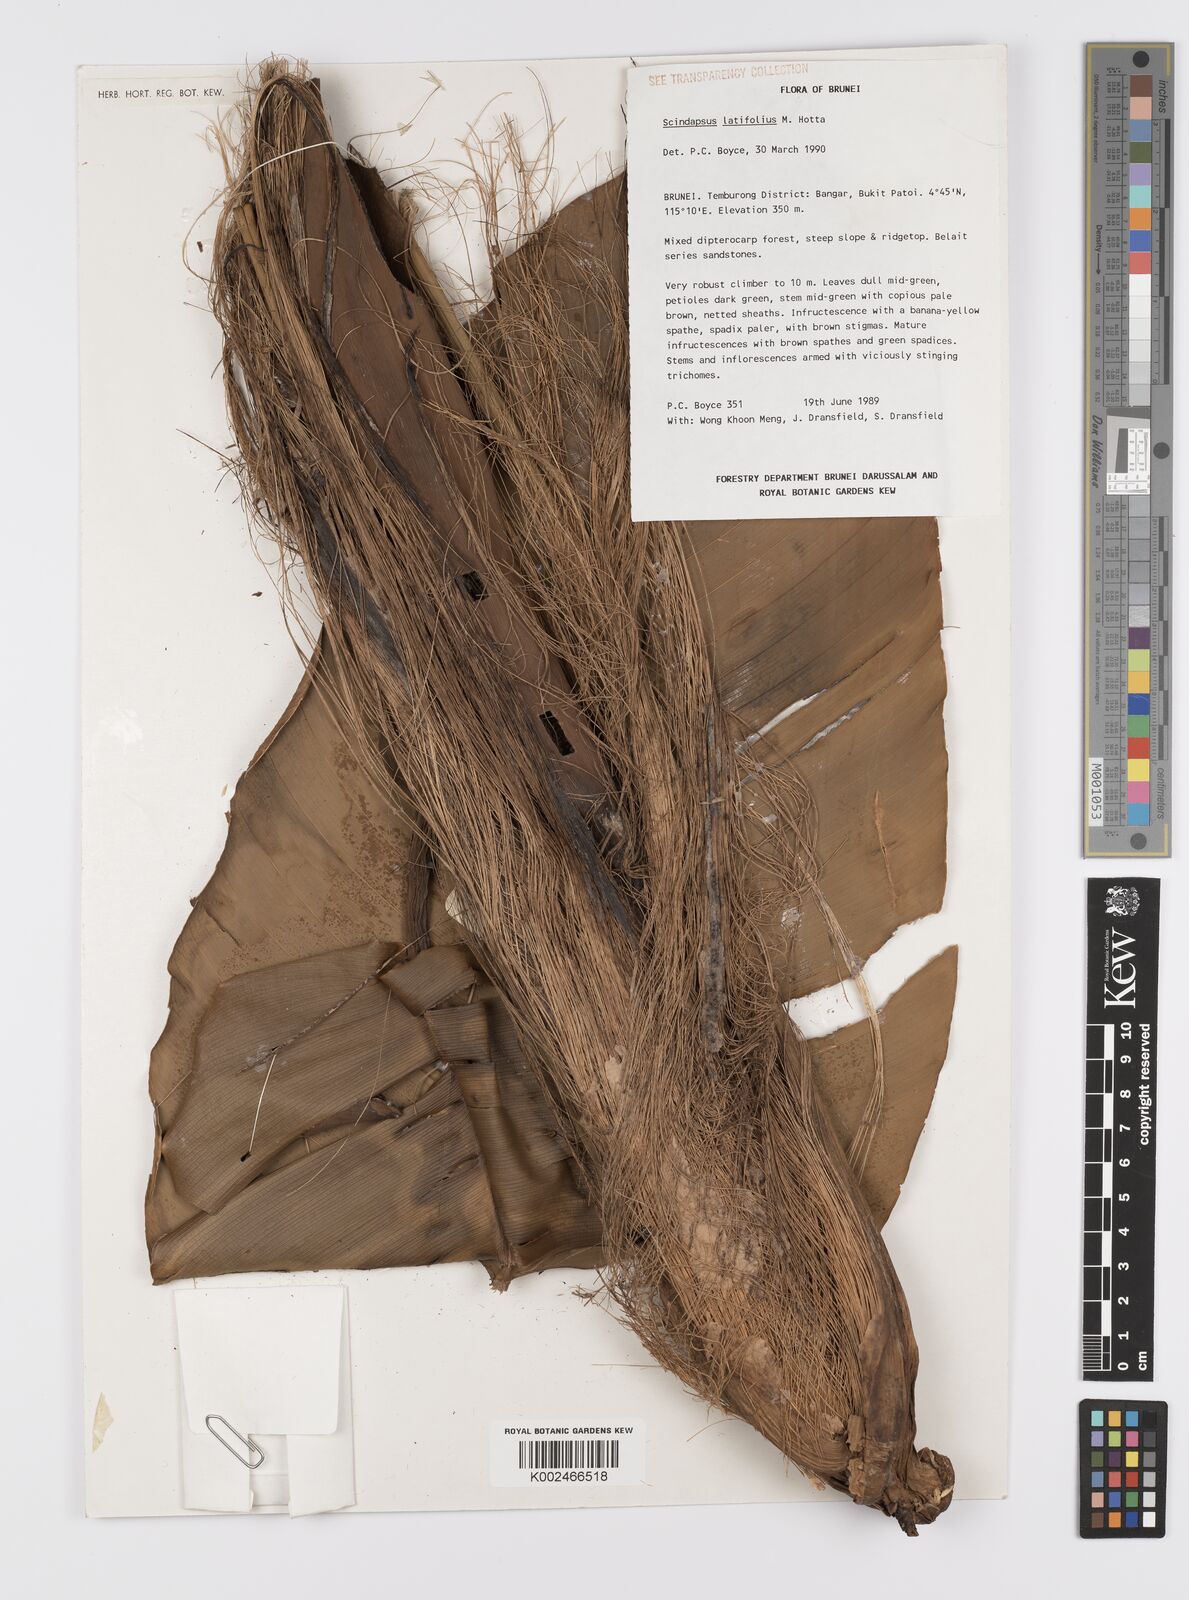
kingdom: Plantae
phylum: Tracheophyta
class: Liliopsida
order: Alismatales
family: Araceae
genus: Scindapsus
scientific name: Scindapsus latifolius
